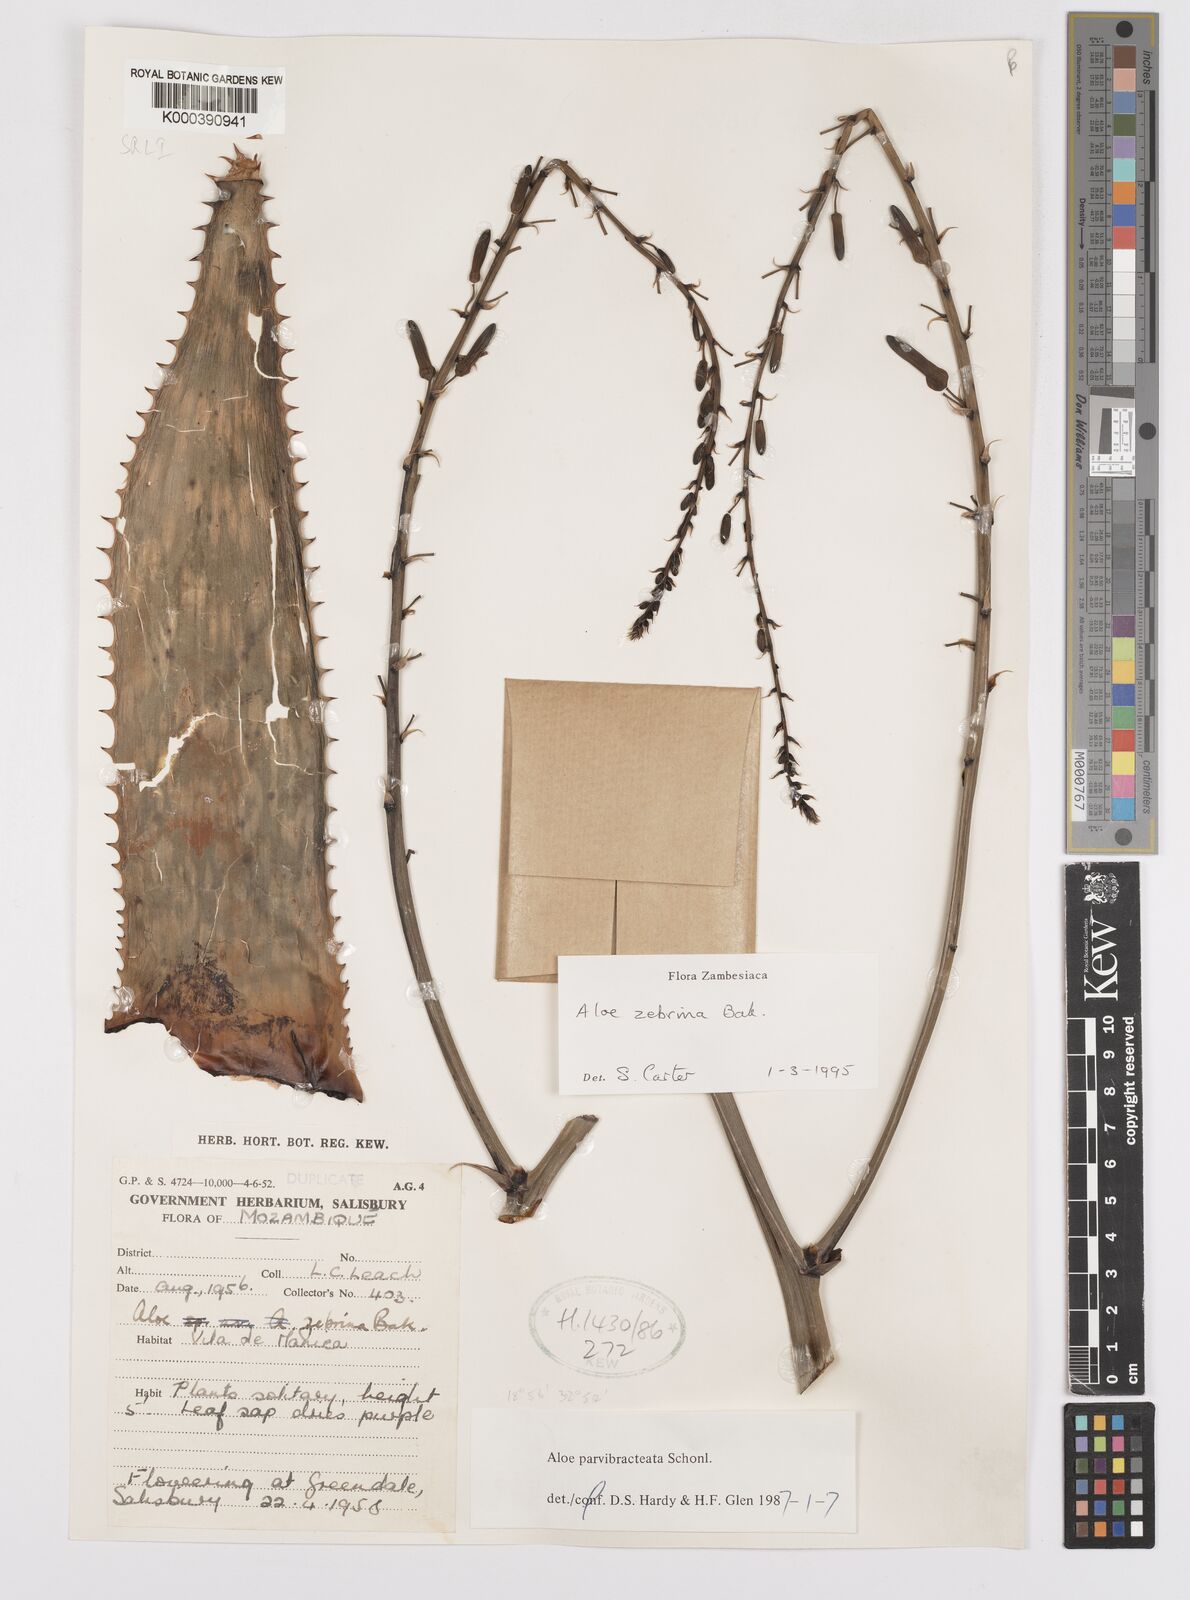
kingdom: Plantae
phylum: Tracheophyta
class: Liliopsida
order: Asparagales
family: Asphodelaceae
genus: Aloe
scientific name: Aloe zebrina
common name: Zebra-leaf aloe
